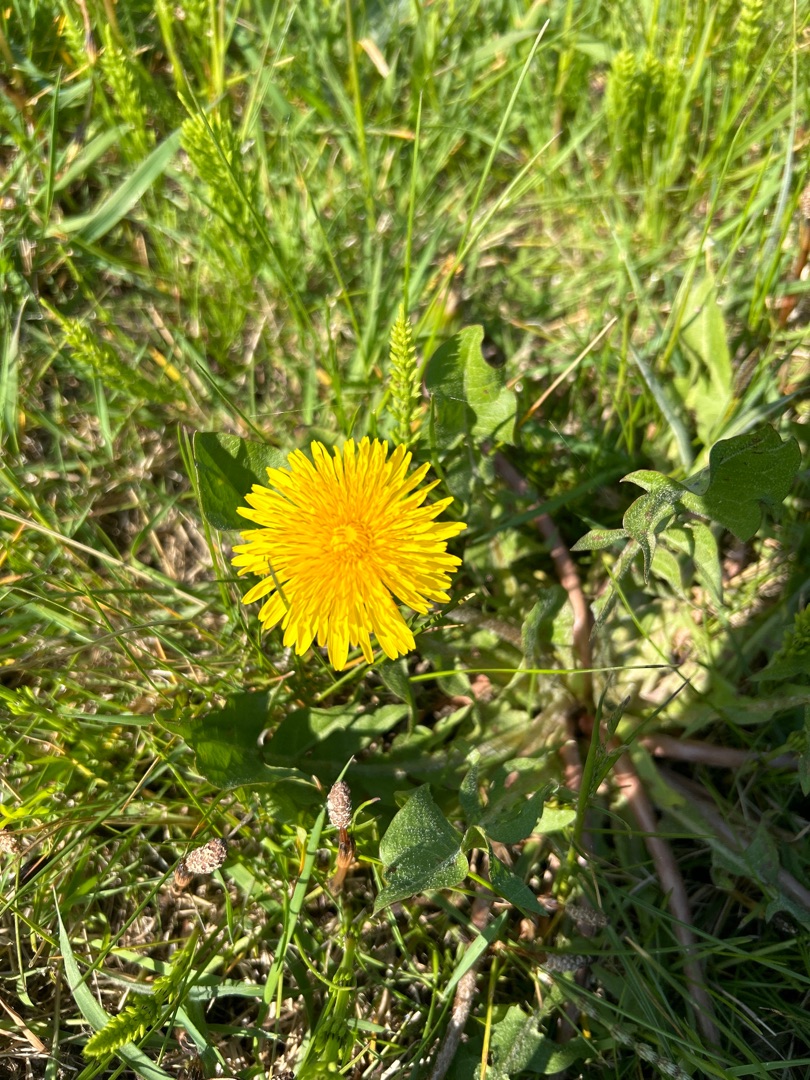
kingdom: Plantae
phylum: Tracheophyta
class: Magnoliopsida
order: Asterales
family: Asteraceae
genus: Taraxacum
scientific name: Taraxacum
